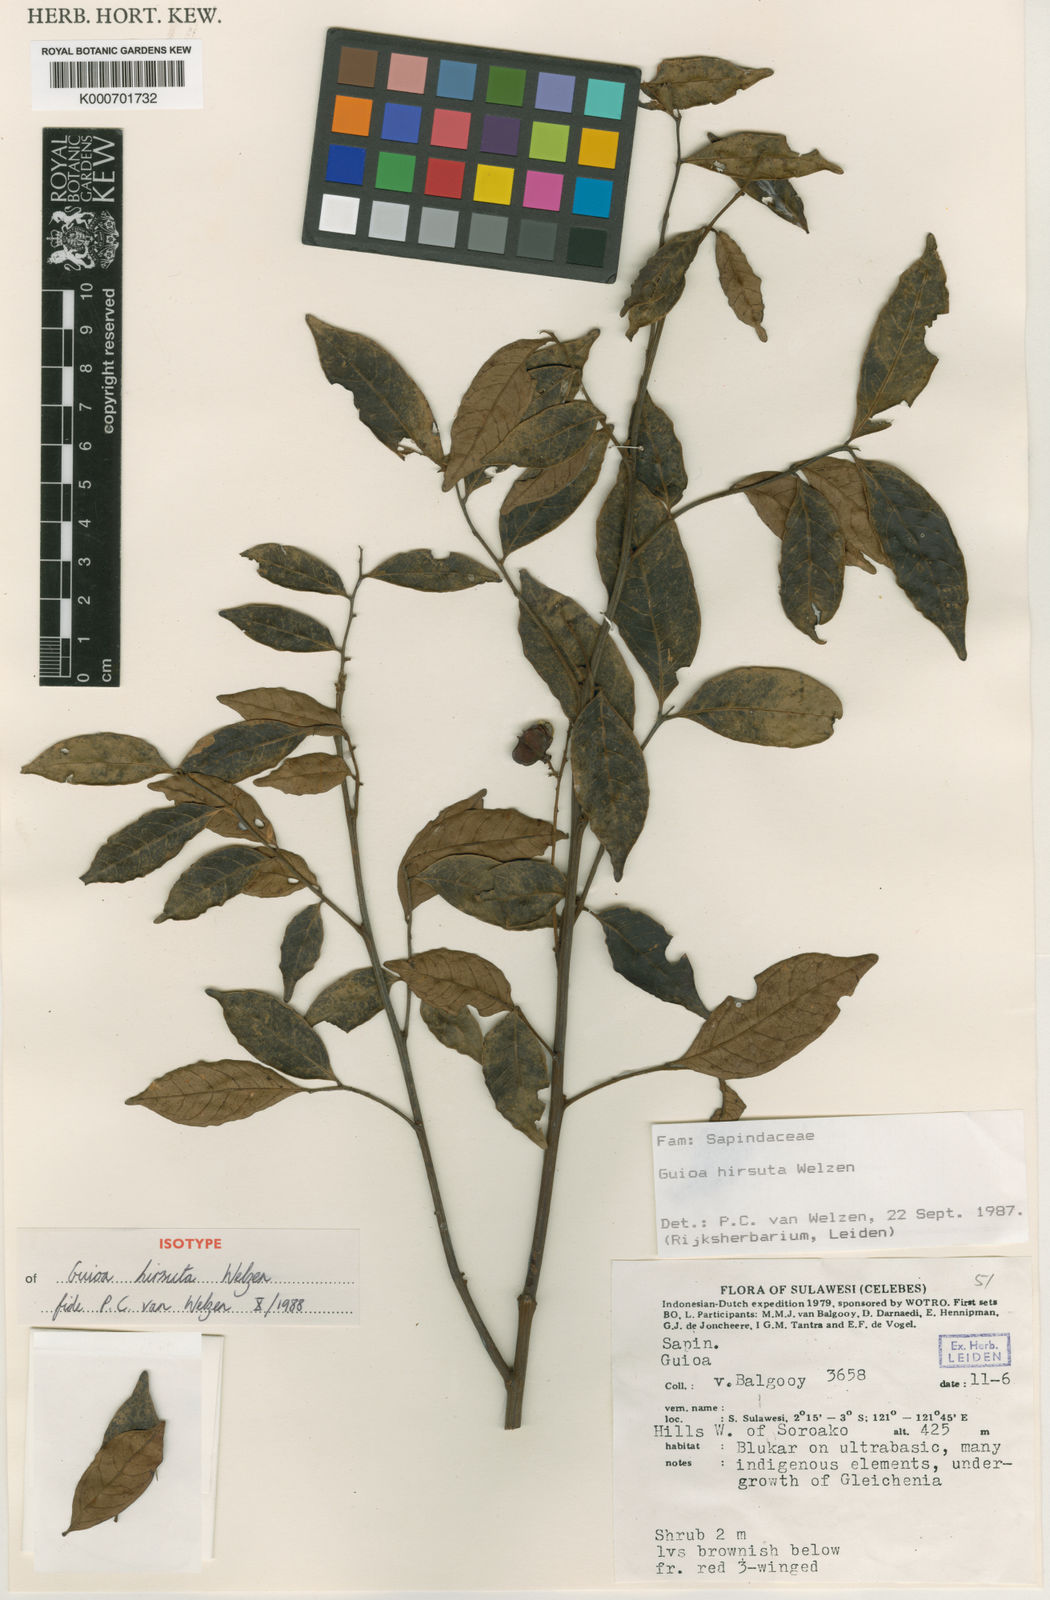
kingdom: Plantae
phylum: Tracheophyta
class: Magnoliopsida
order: Sapindales
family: Sapindaceae
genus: Guioa
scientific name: Guioa hirsuta
